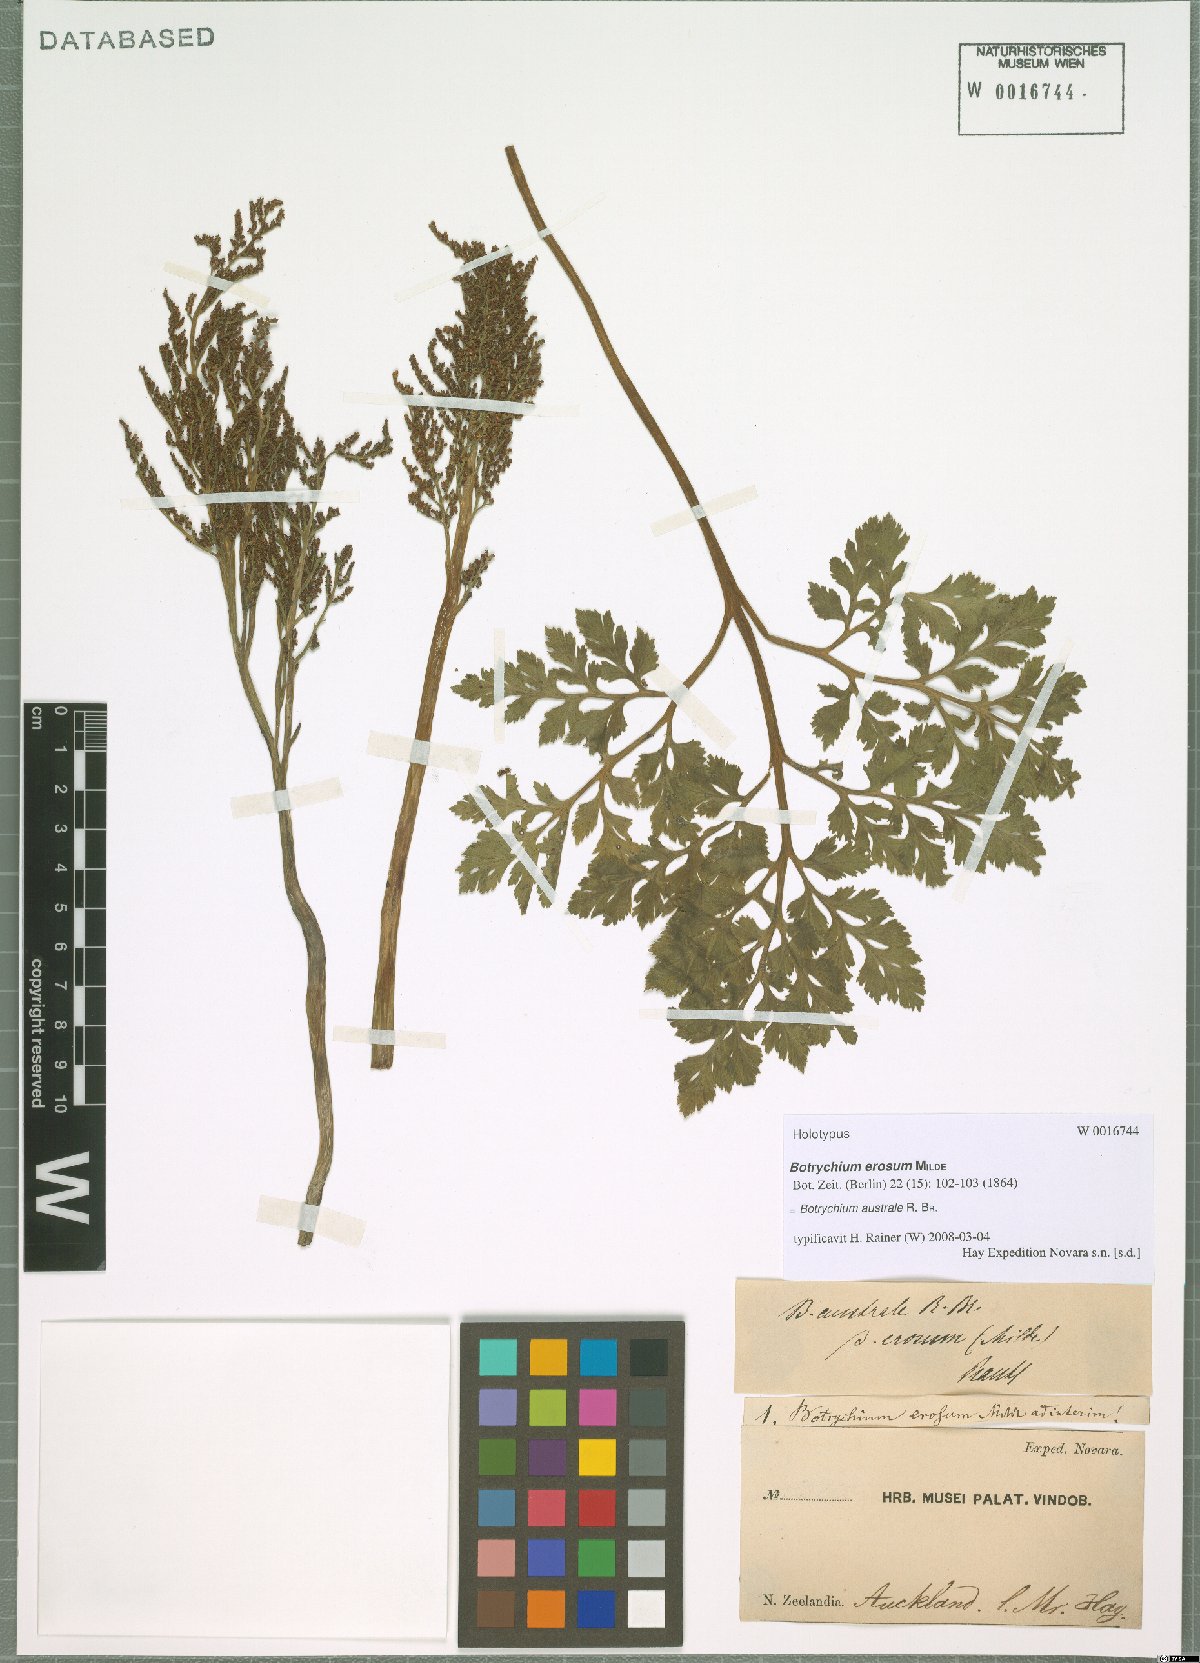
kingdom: Plantae
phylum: Tracheophyta
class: Polypodiopsida
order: Ophioglossales
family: Ophioglossaceae
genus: Sceptridium
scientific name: Sceptridium australe
